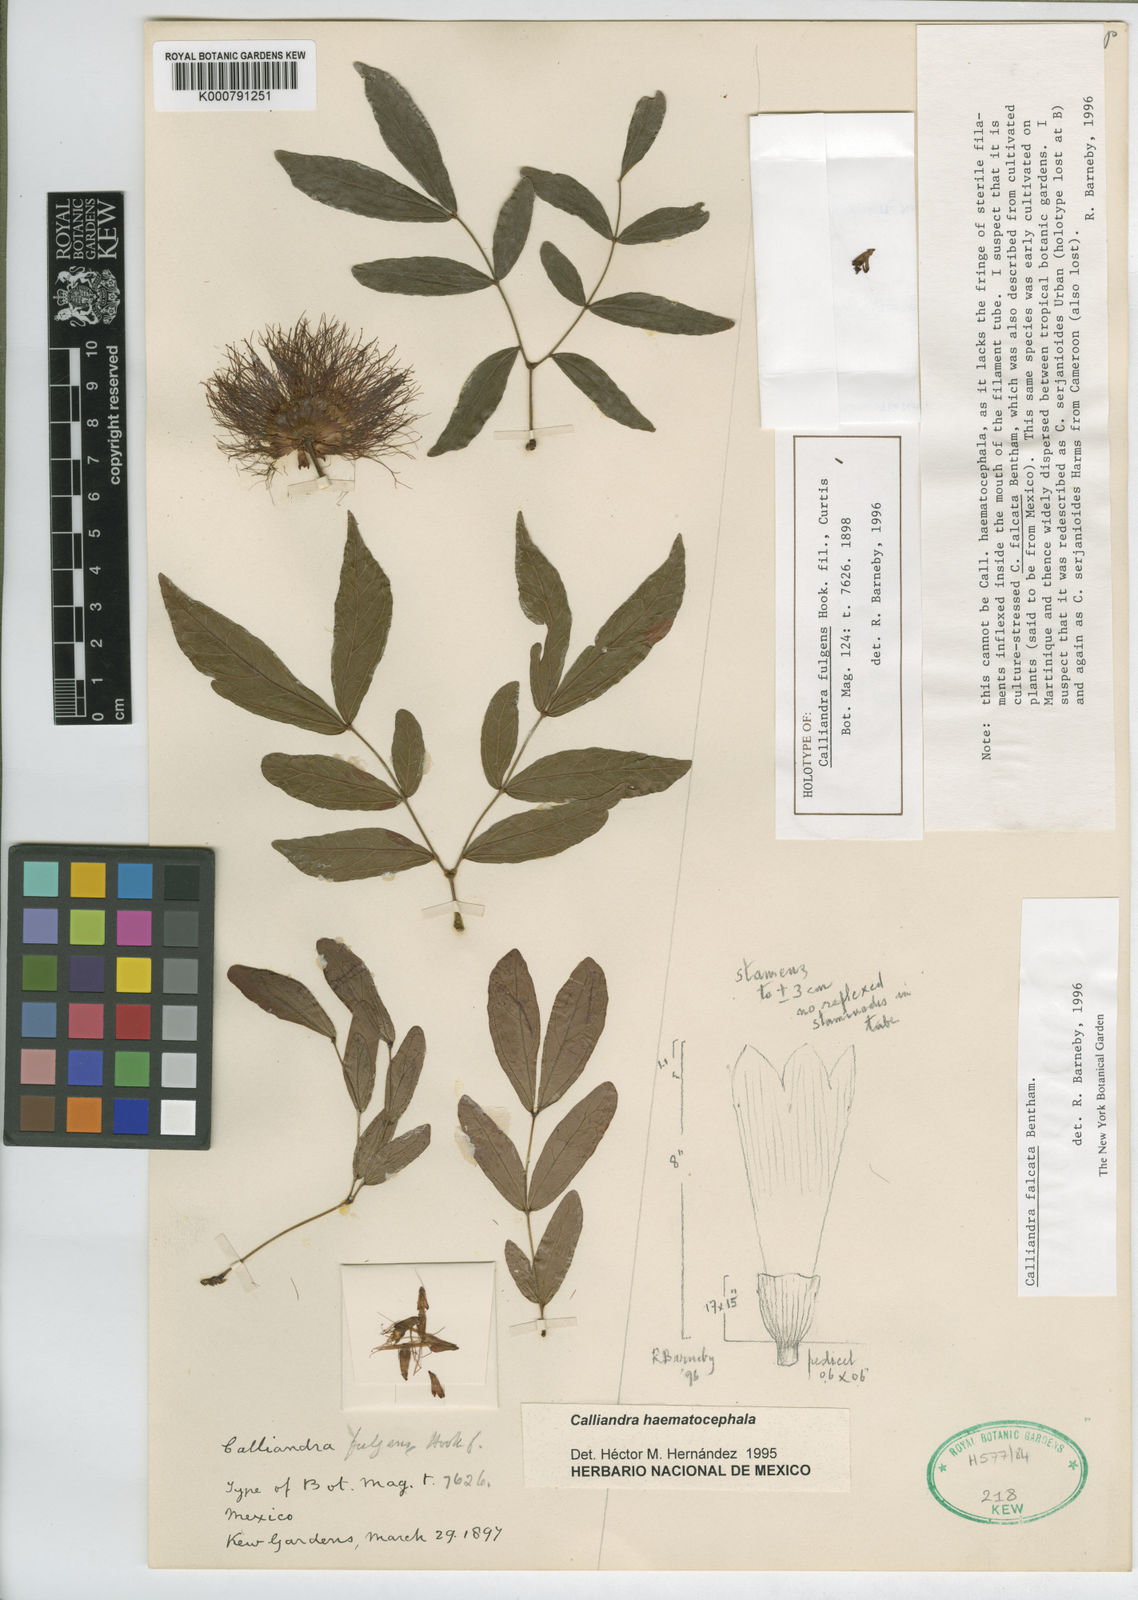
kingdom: Plantae
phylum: Tracheophyta
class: Magnoliopsida
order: Fabales
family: Fabaceae
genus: Calliandra
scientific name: Calliandra falcata
